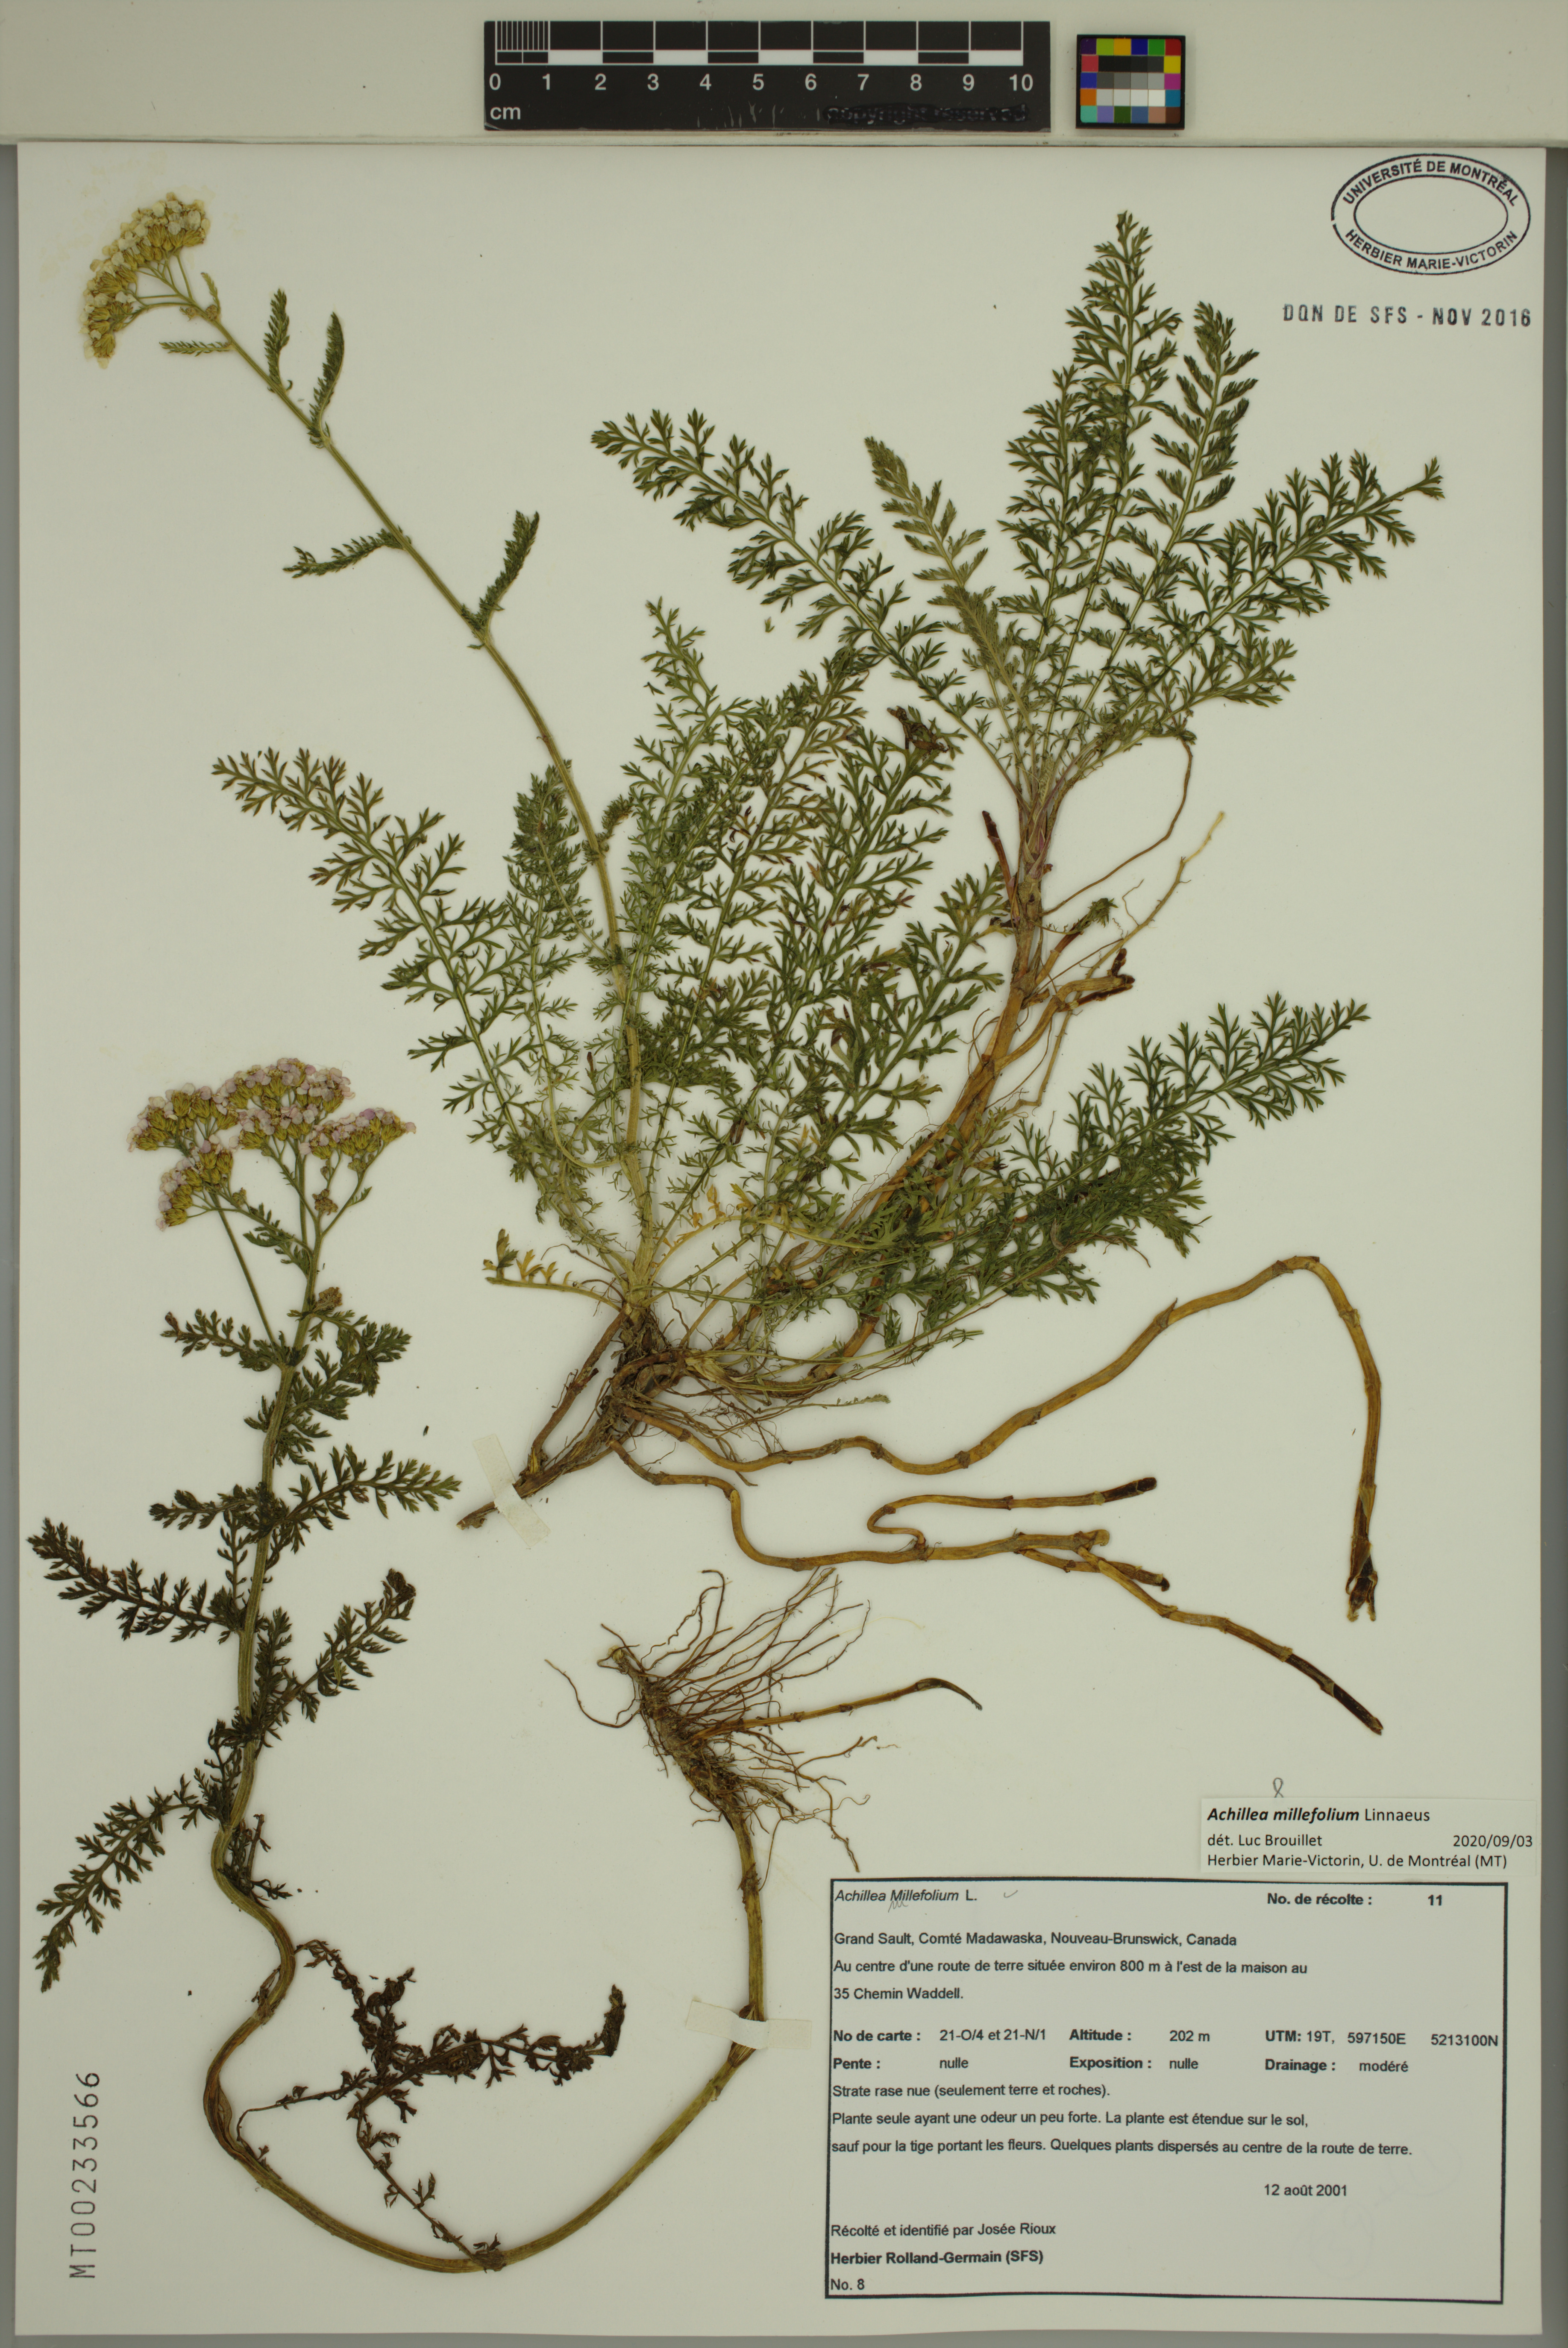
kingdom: Plantae
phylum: Tracheophyta
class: Magnoliopsida
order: Asterales
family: Asteraceae
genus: Achillea
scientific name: Achillea millefolium
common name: Yarrow
